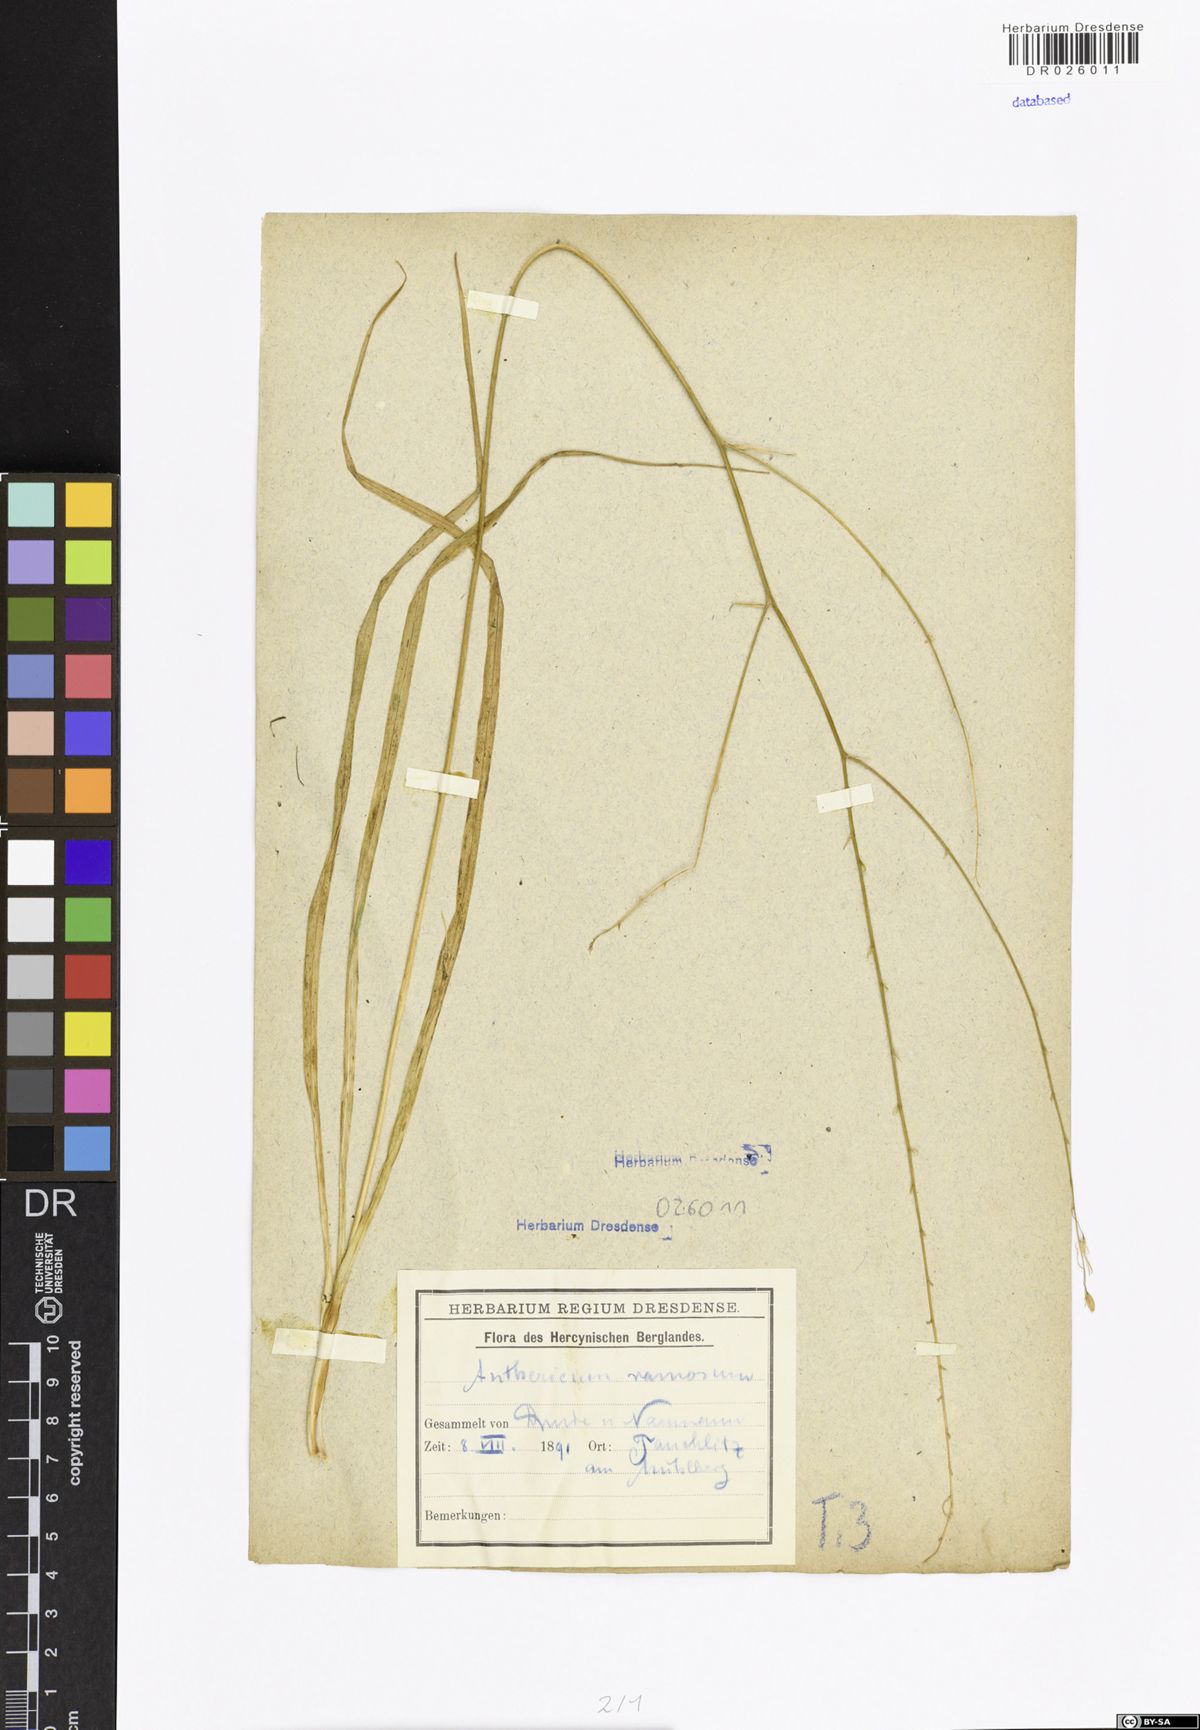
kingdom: Plantae
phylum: Tracheophyta
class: Liliopsida
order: Asparagales
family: Asparagaceae
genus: Anthericum
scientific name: Anthericum ramosum
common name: Branched st. bernard's-lily
